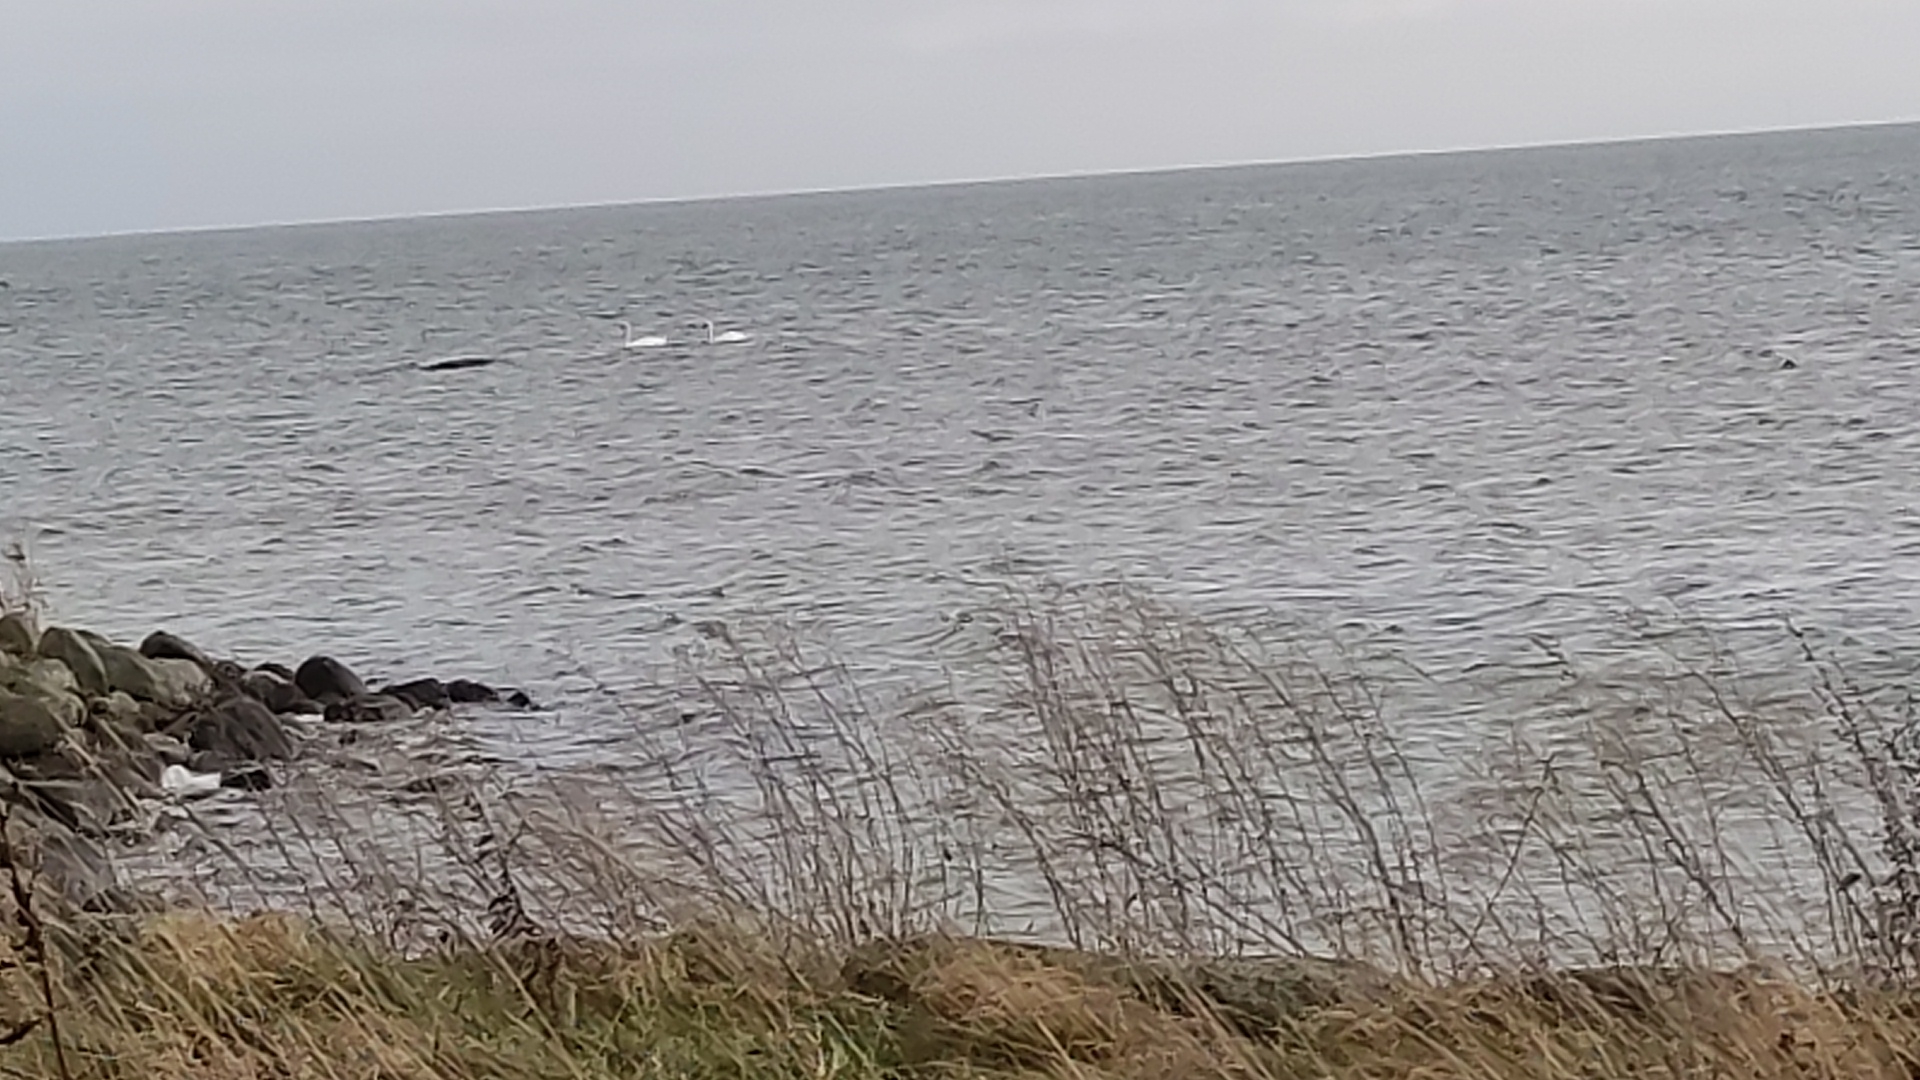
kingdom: Animalia
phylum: Chordata
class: Aves
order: Anseriformes
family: Anatidae
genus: Cygnus
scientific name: Cygnus olor
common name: Knopsvane
